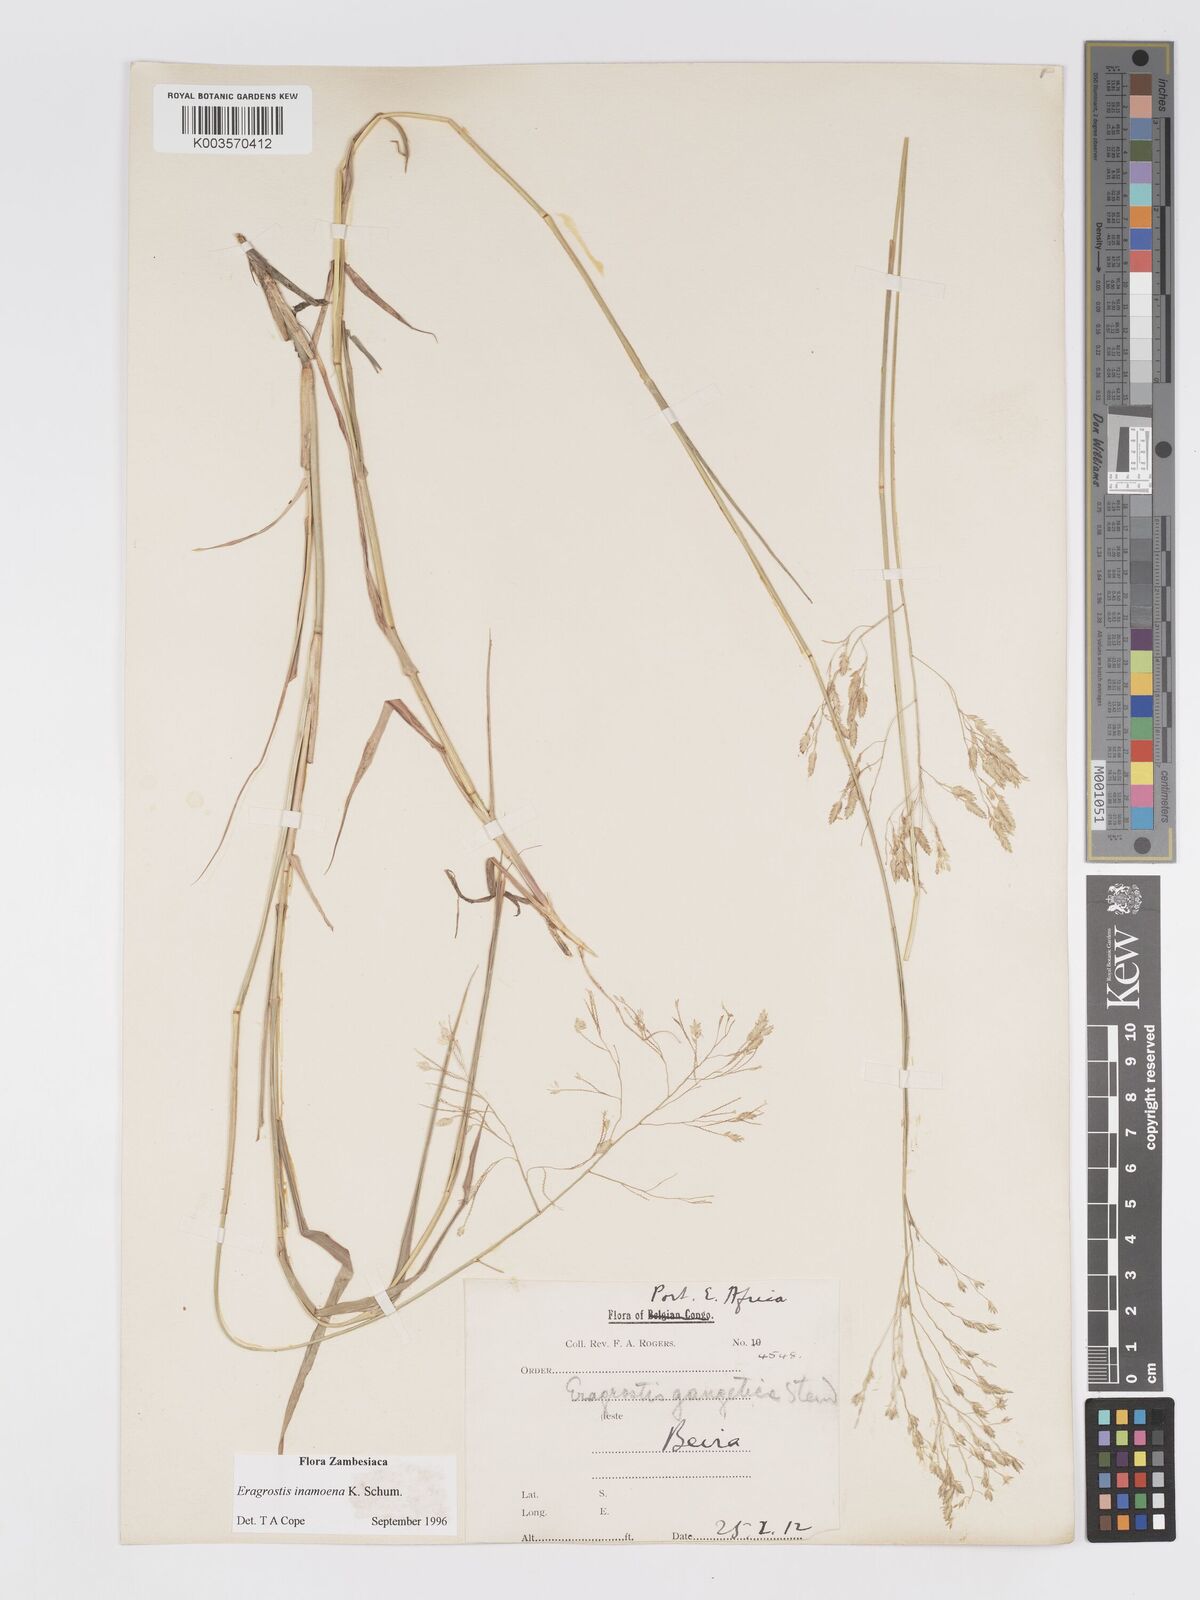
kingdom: Plantae
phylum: Tracheophyta
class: Liliopsida
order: Poales
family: Poaceae
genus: Eragrostis
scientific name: Eragrostis inamoena
